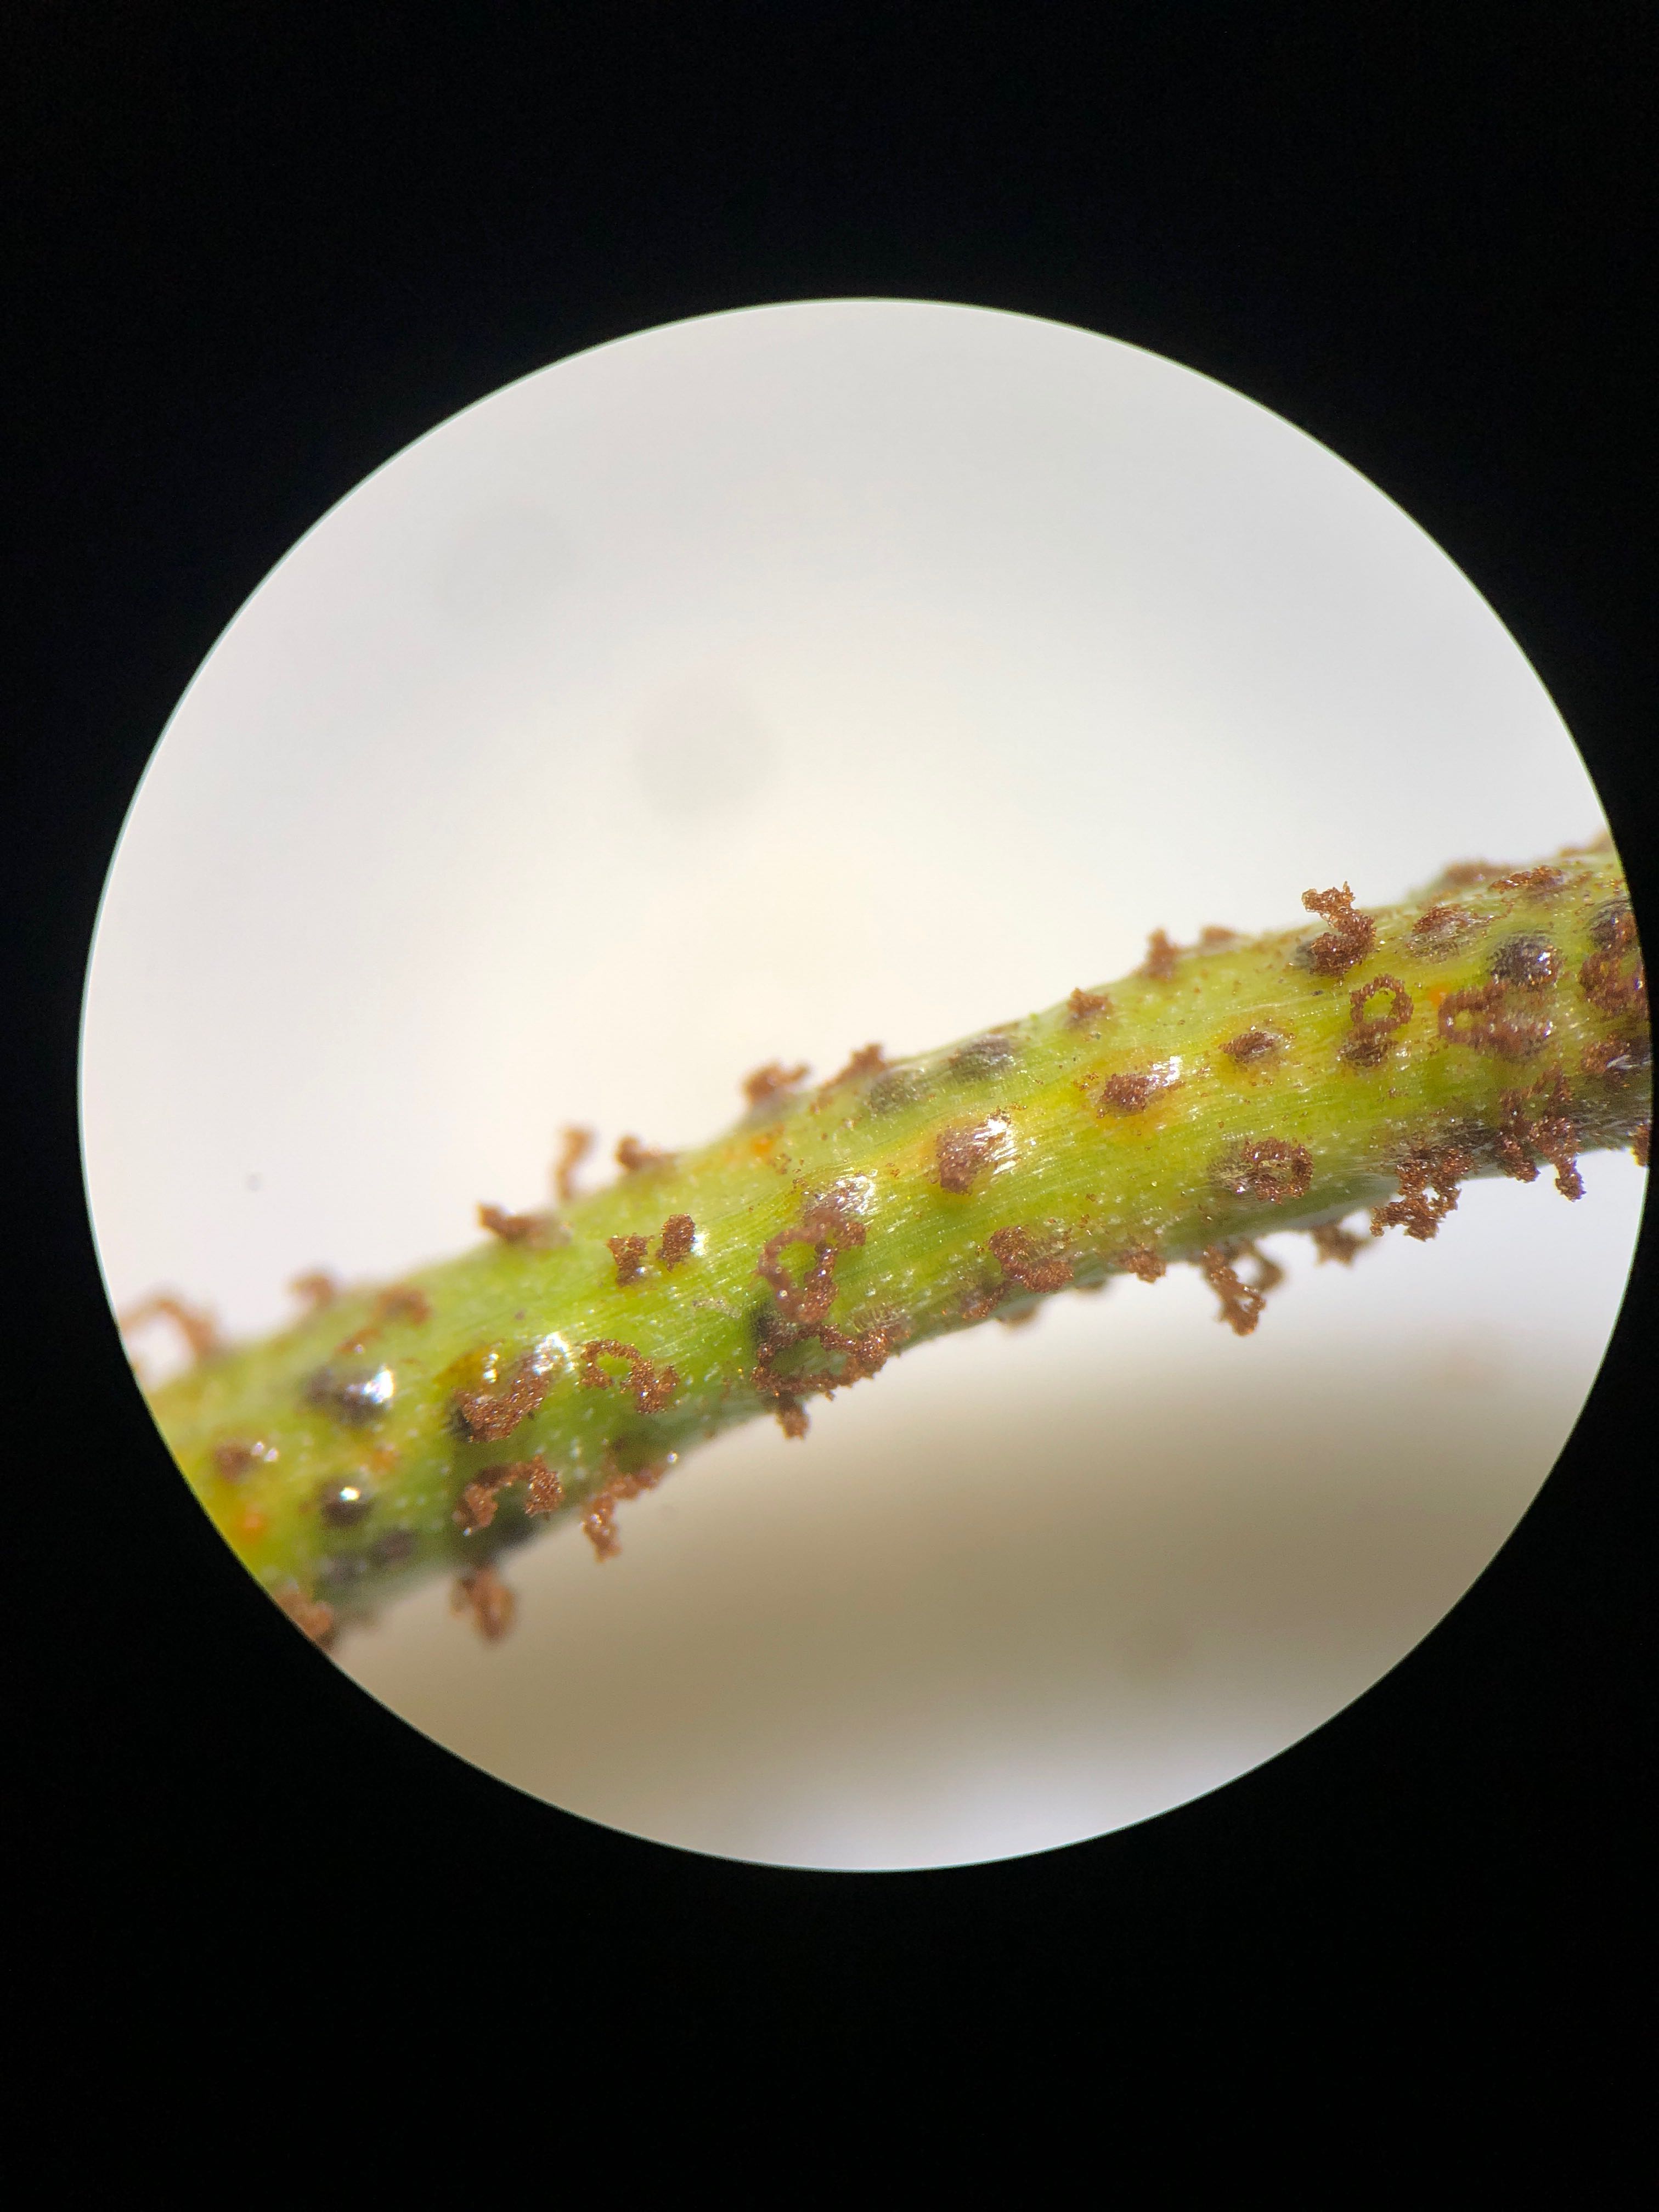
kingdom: Fungi
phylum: Basidiomycota
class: Pucciniomycetes
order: Pucciniales
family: Pucciniaceae
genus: Puccinia
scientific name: Puccinia liliacearum
